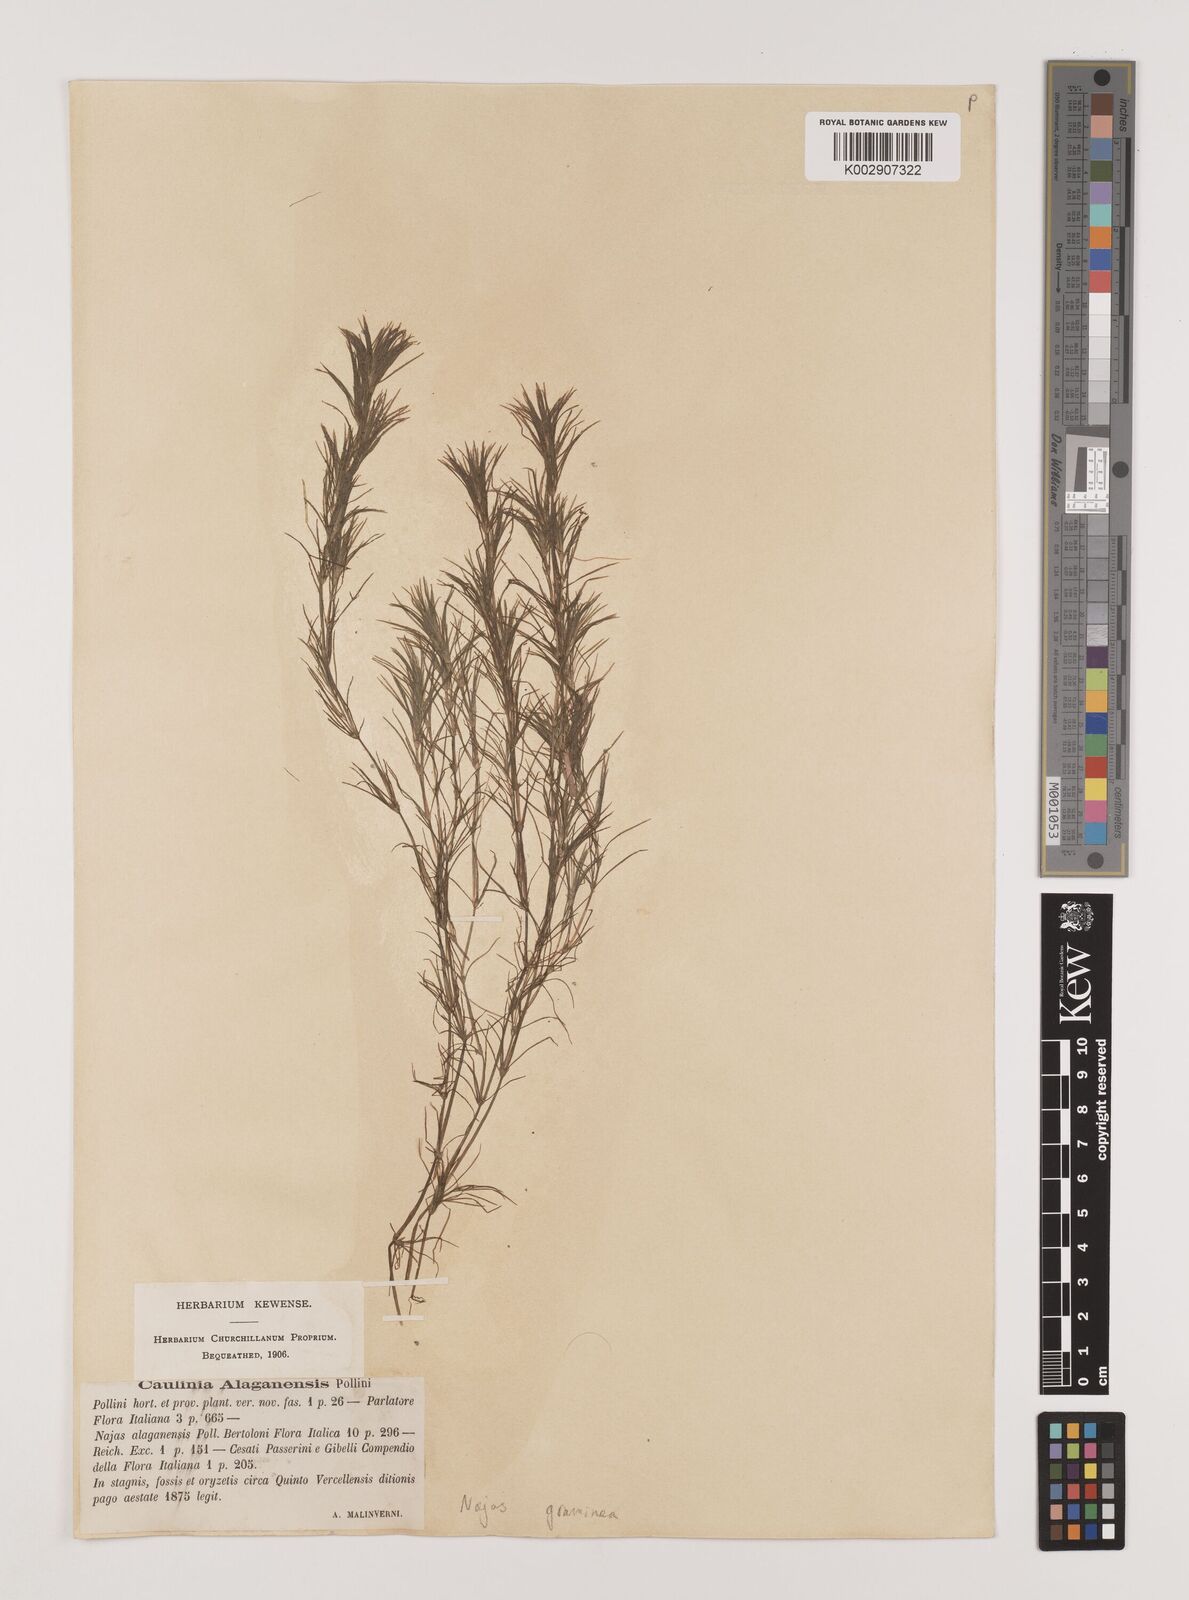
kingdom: Plantae
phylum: Tracheophyta
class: Liliopsida
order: Alismatales
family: Hydrocharitaceae
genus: Najas
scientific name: Najas graminea
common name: Ricefield waternymph
